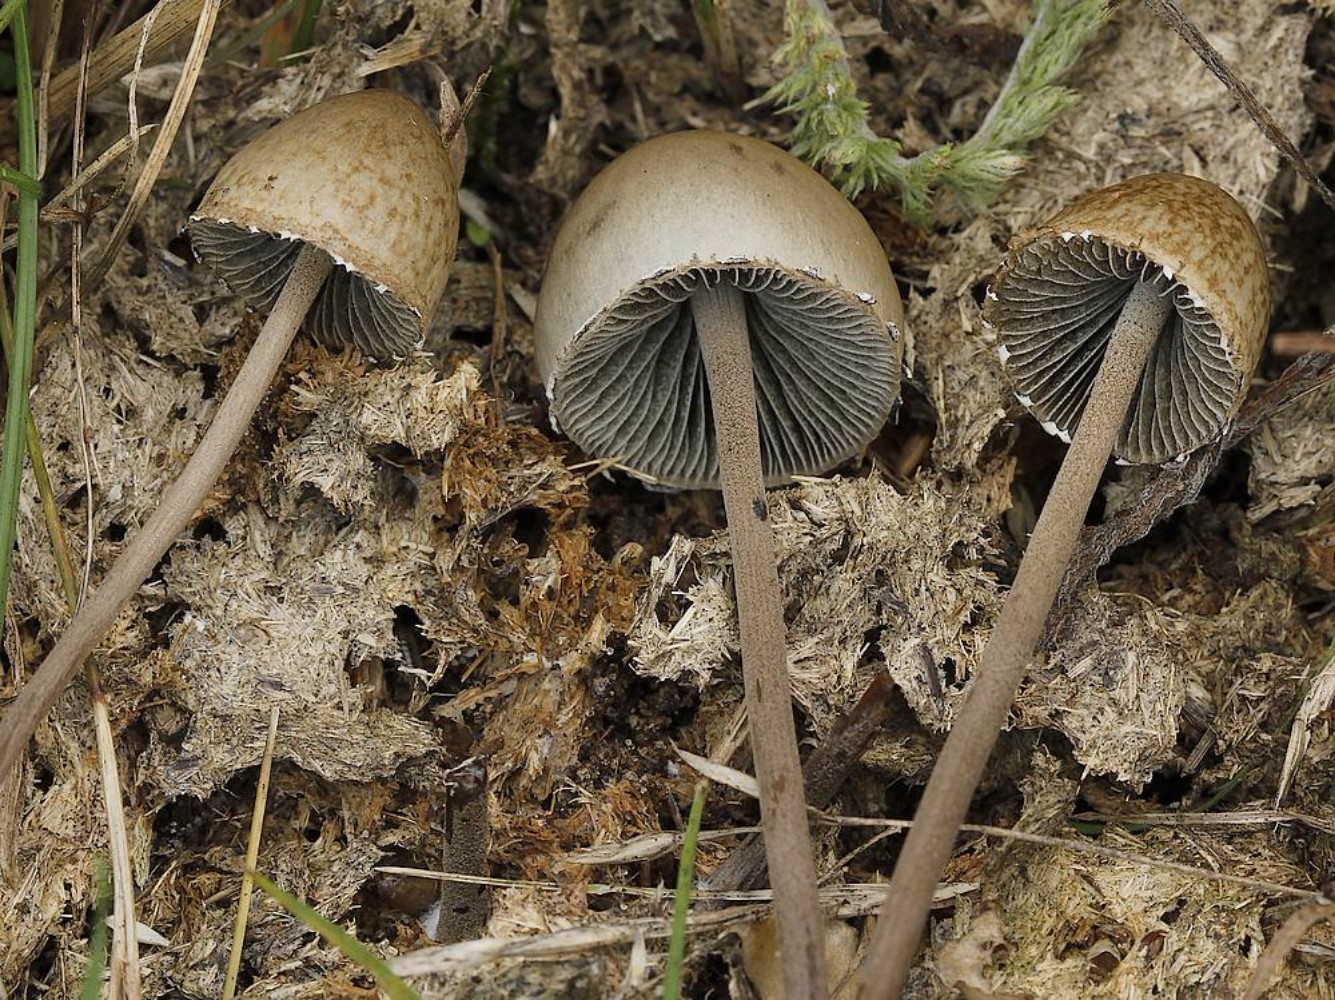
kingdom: Fungi
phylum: Basidiomycota
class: Agaricomycetes
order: Agaricales
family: Bolbitiaceae
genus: Panaeolus
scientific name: Panaeolus papilionaceus
